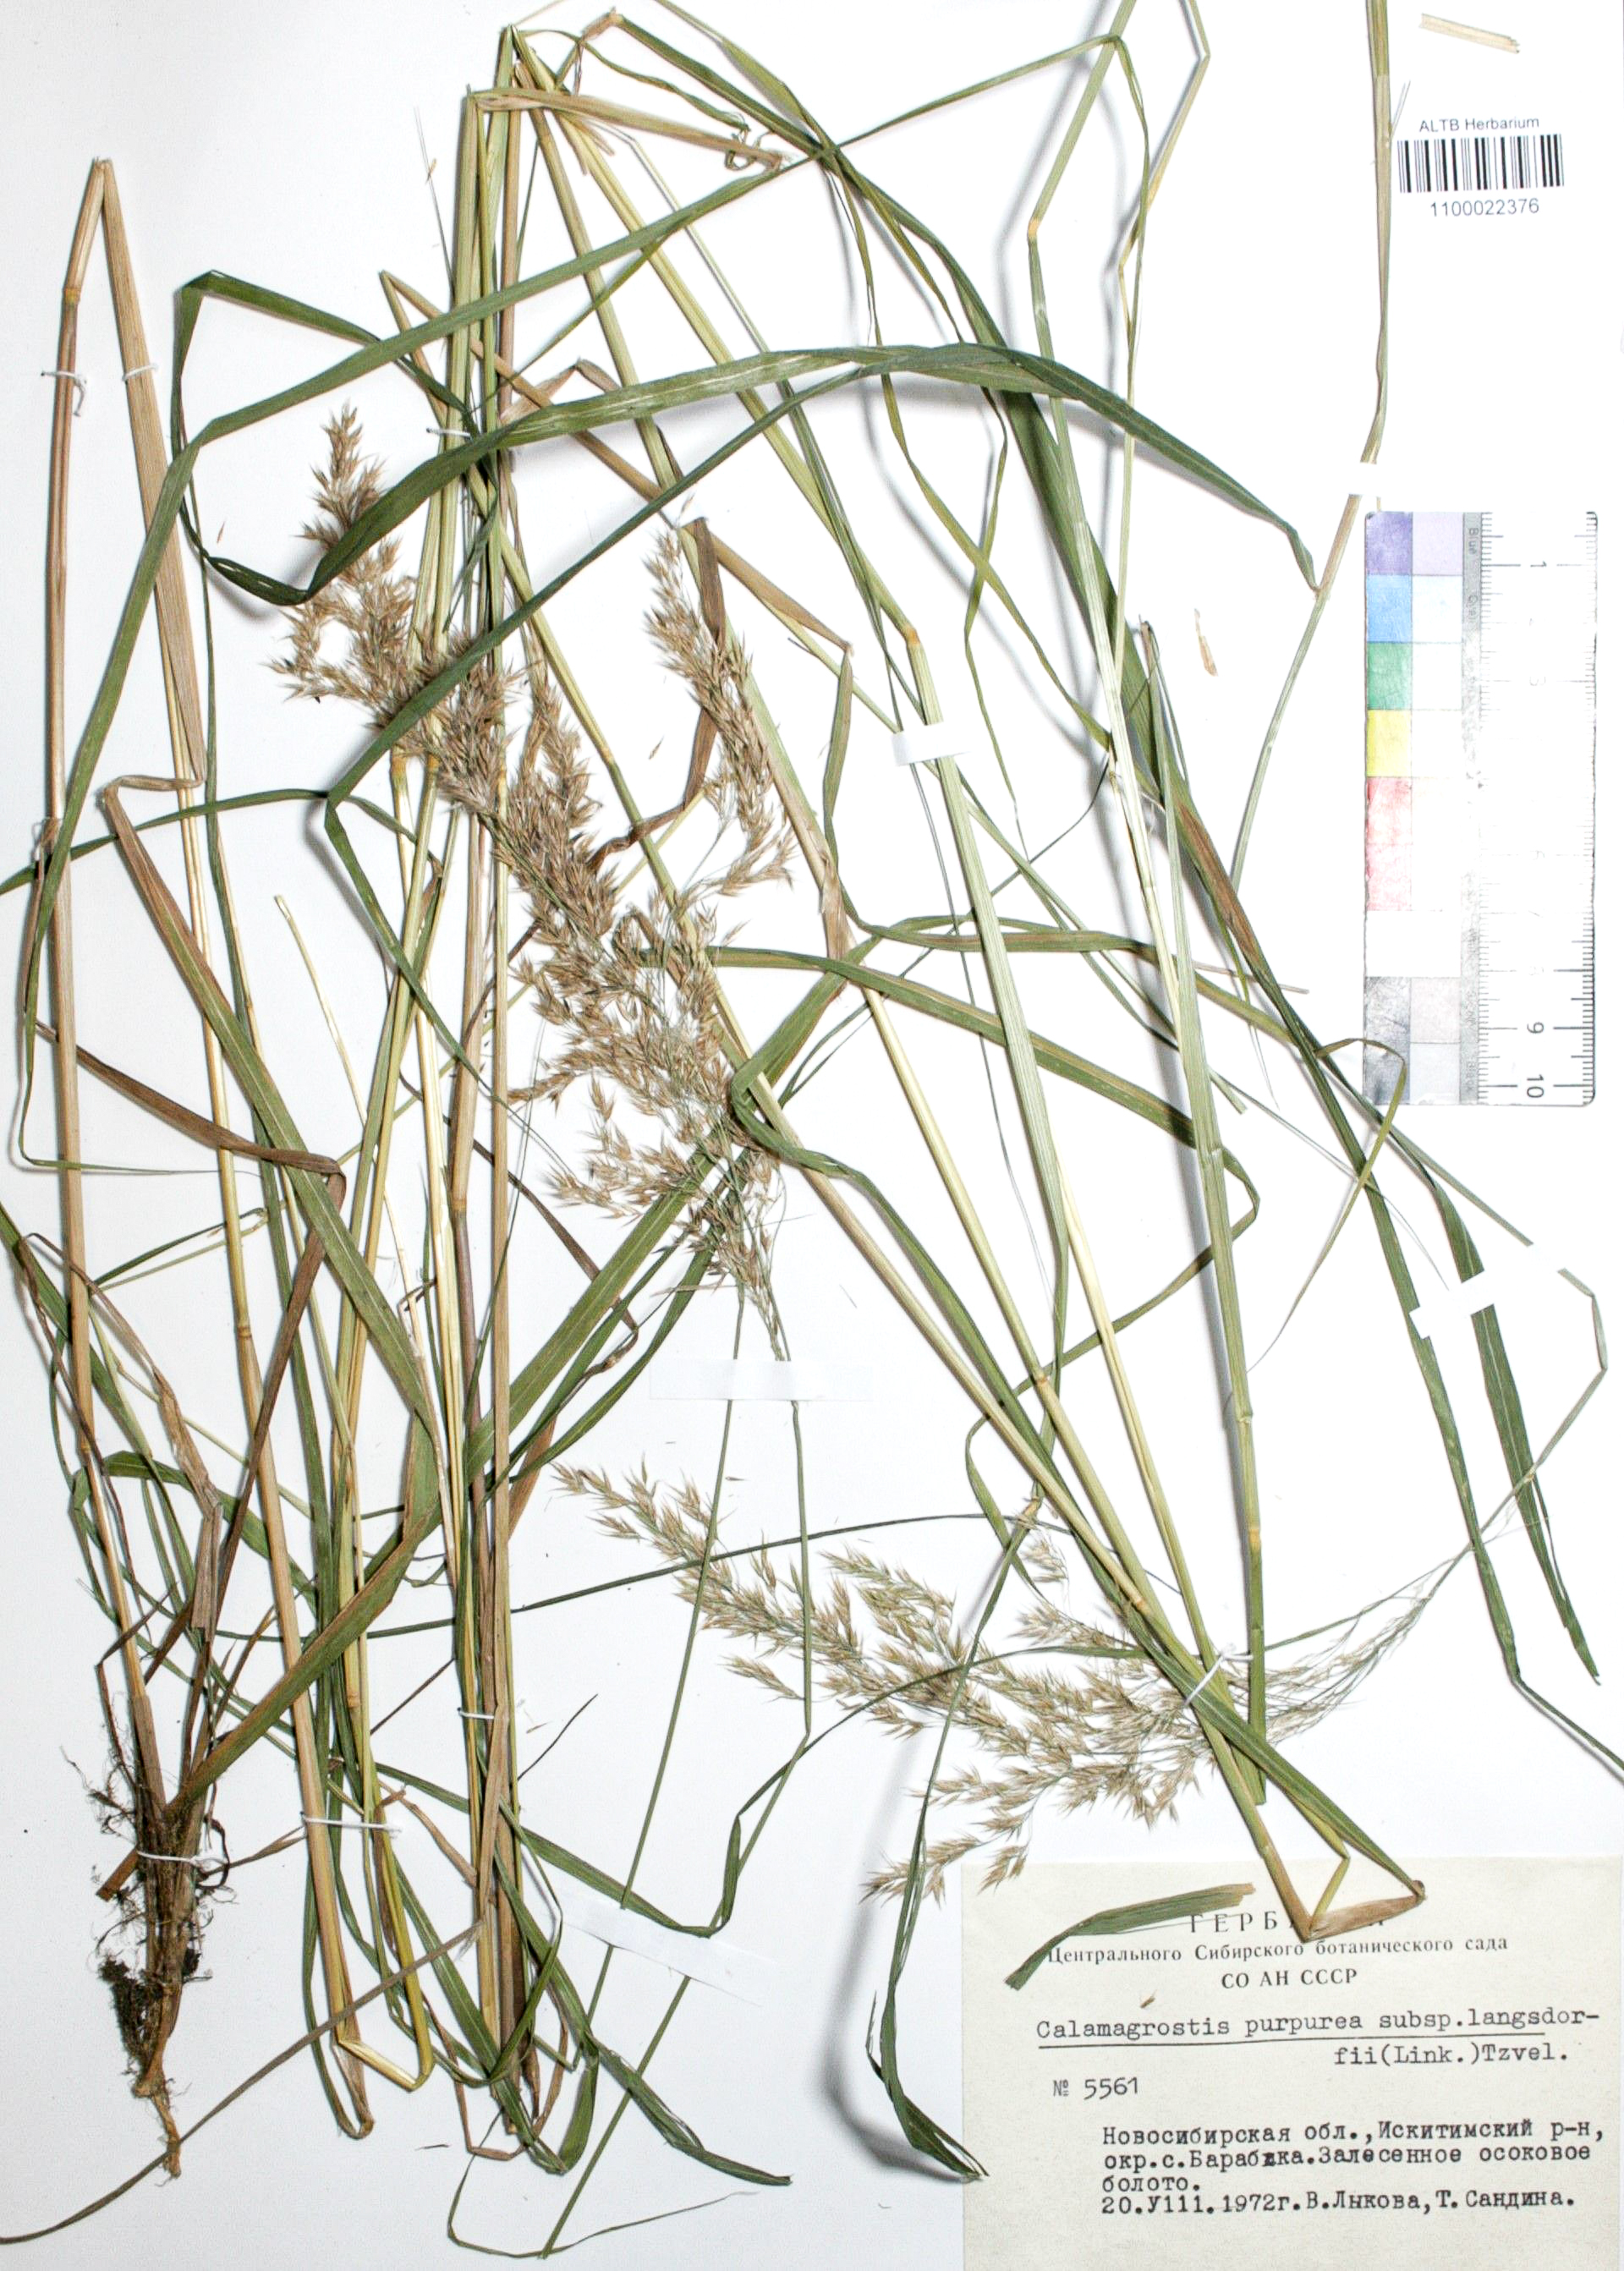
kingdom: Plantae
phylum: Tracheophyta
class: Liliopsida
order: Poales
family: Poaceae
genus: Calamagrostis
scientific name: Calamagrostis purpurea
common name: Scandinavian small-reed
